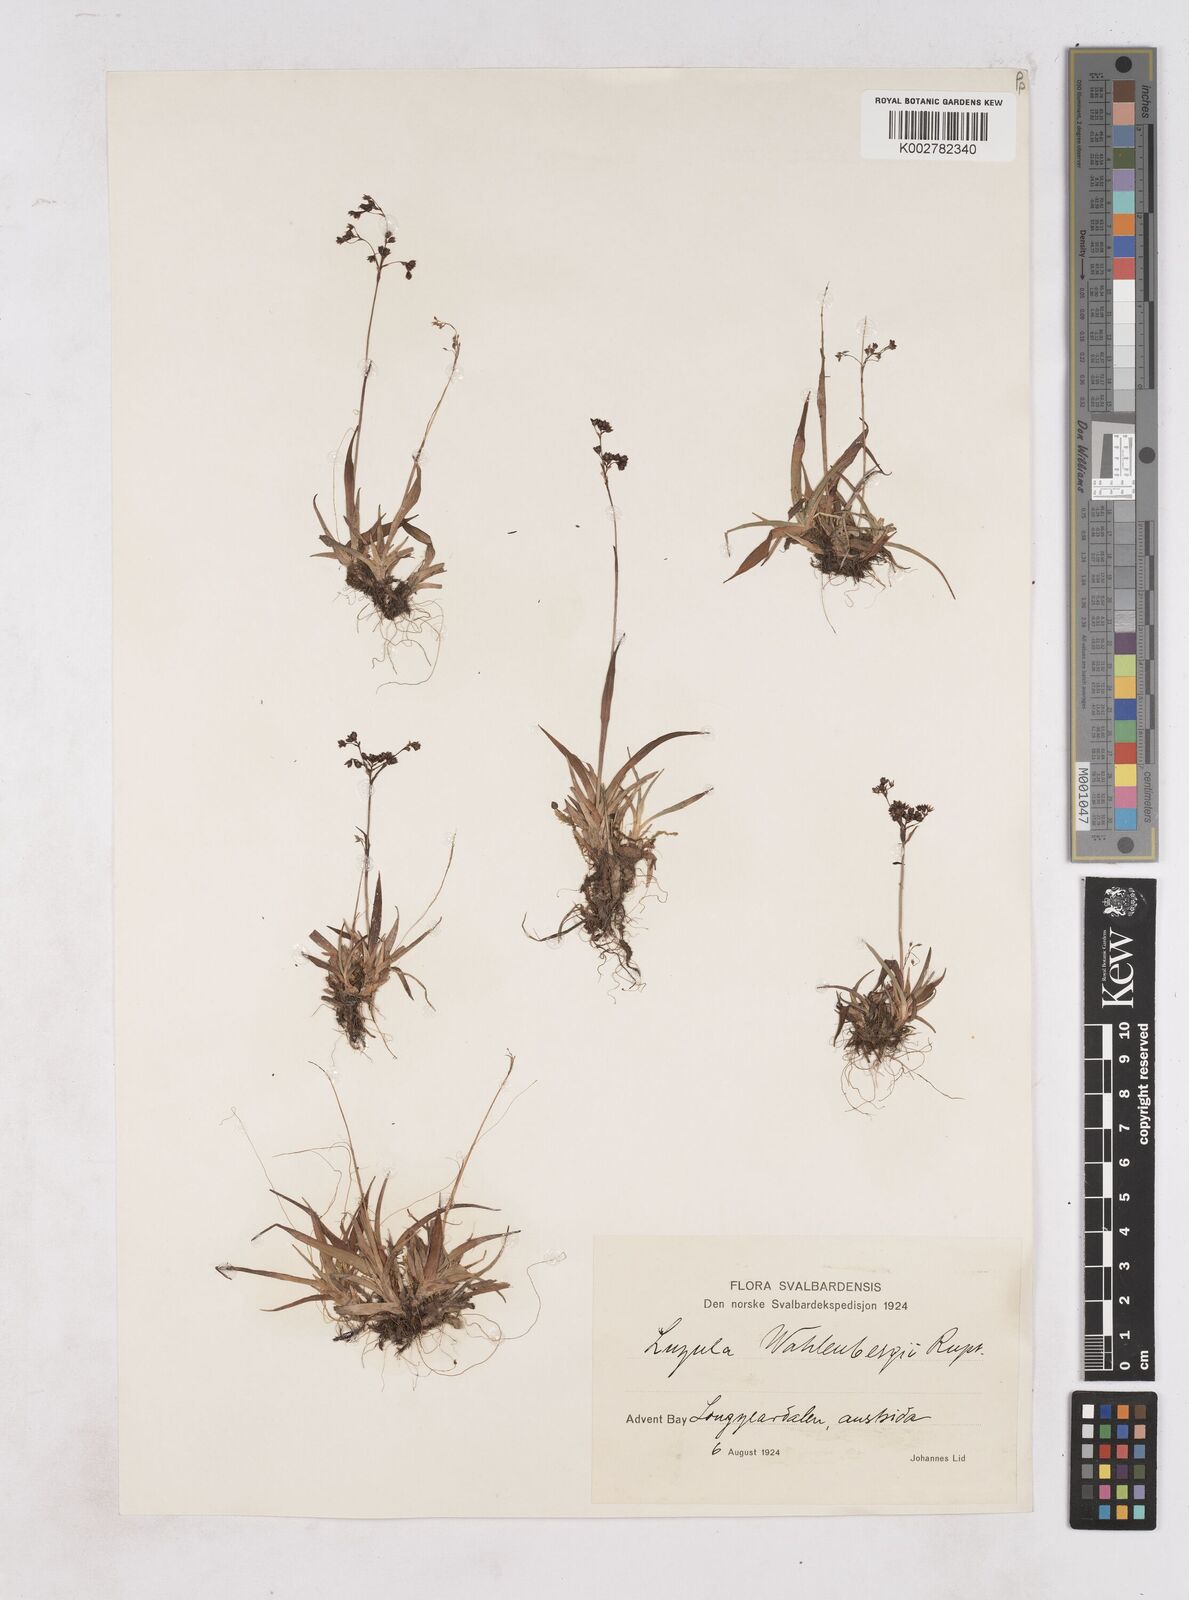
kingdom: Plantae
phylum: Tracheophyta
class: Liliopsida
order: Poales
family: Juncaceae
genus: Luzula
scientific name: Luzula alpinopilosa
